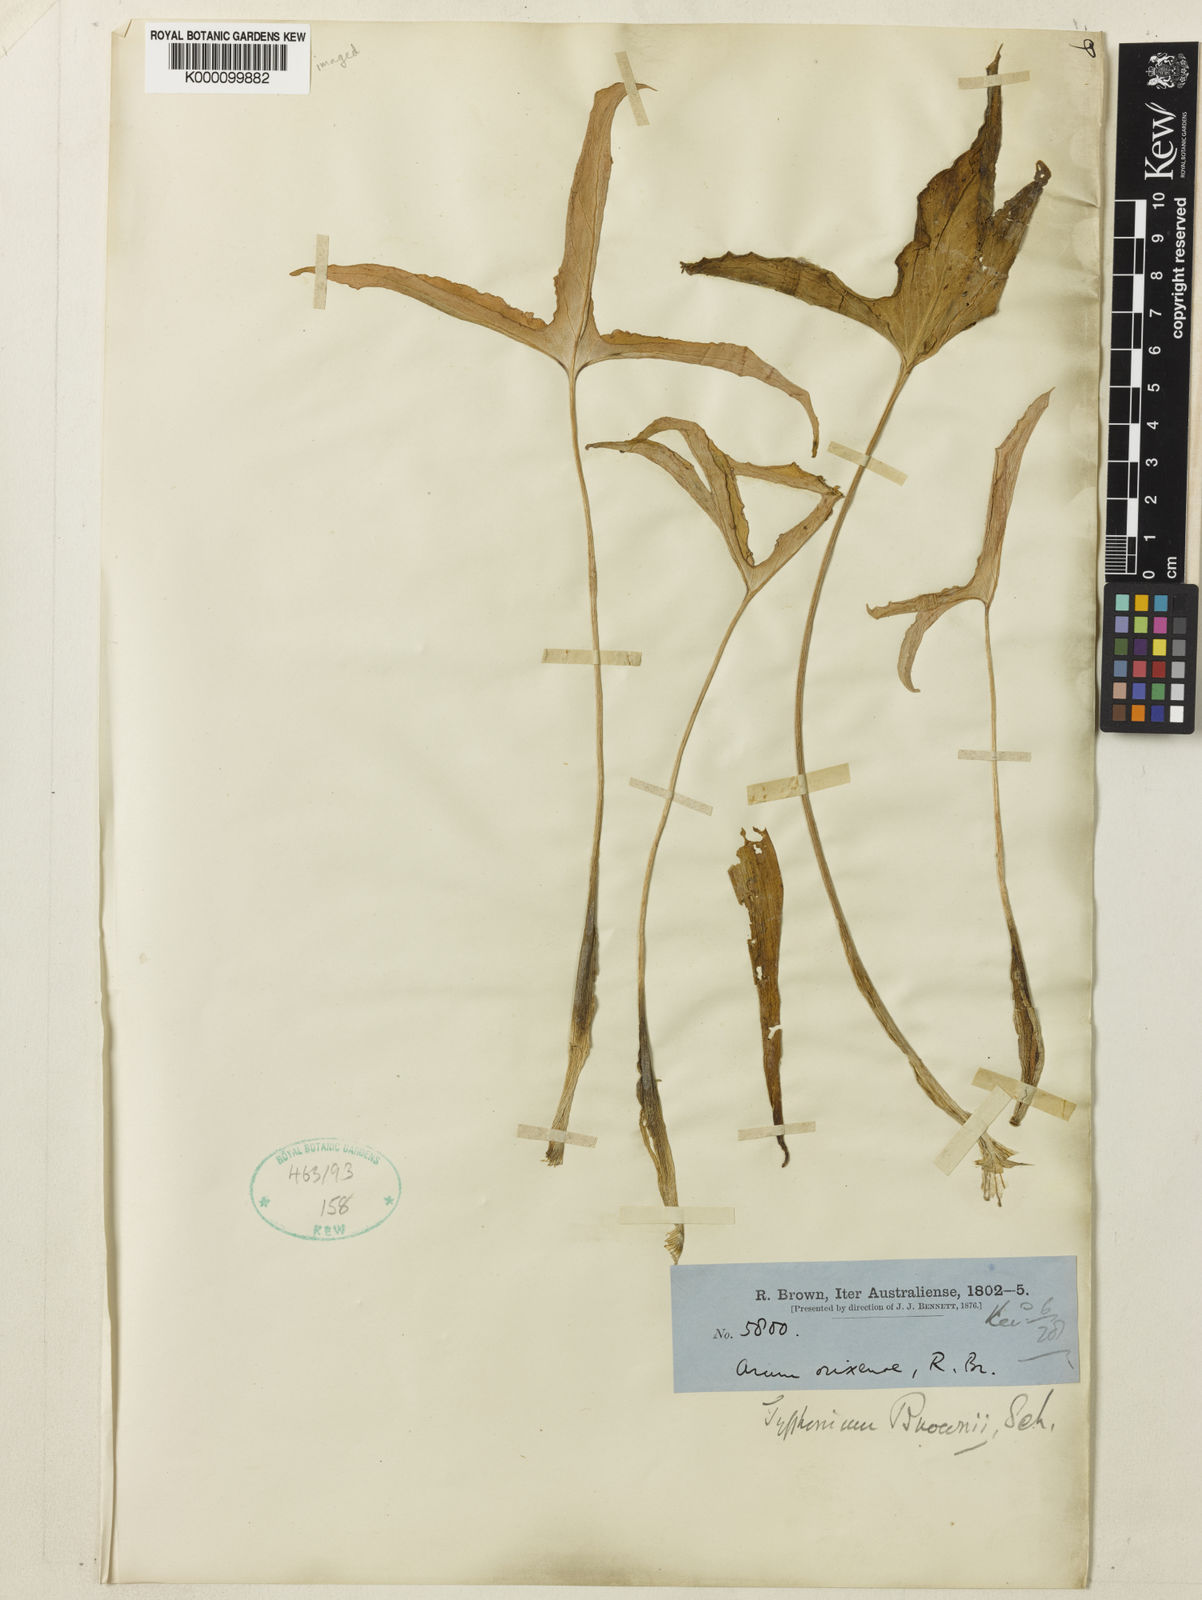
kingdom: Plantae
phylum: Tracheophyta
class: Liliopsida
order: Alismatales
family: Araceae
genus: Typhonium
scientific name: Typhonium brownii
